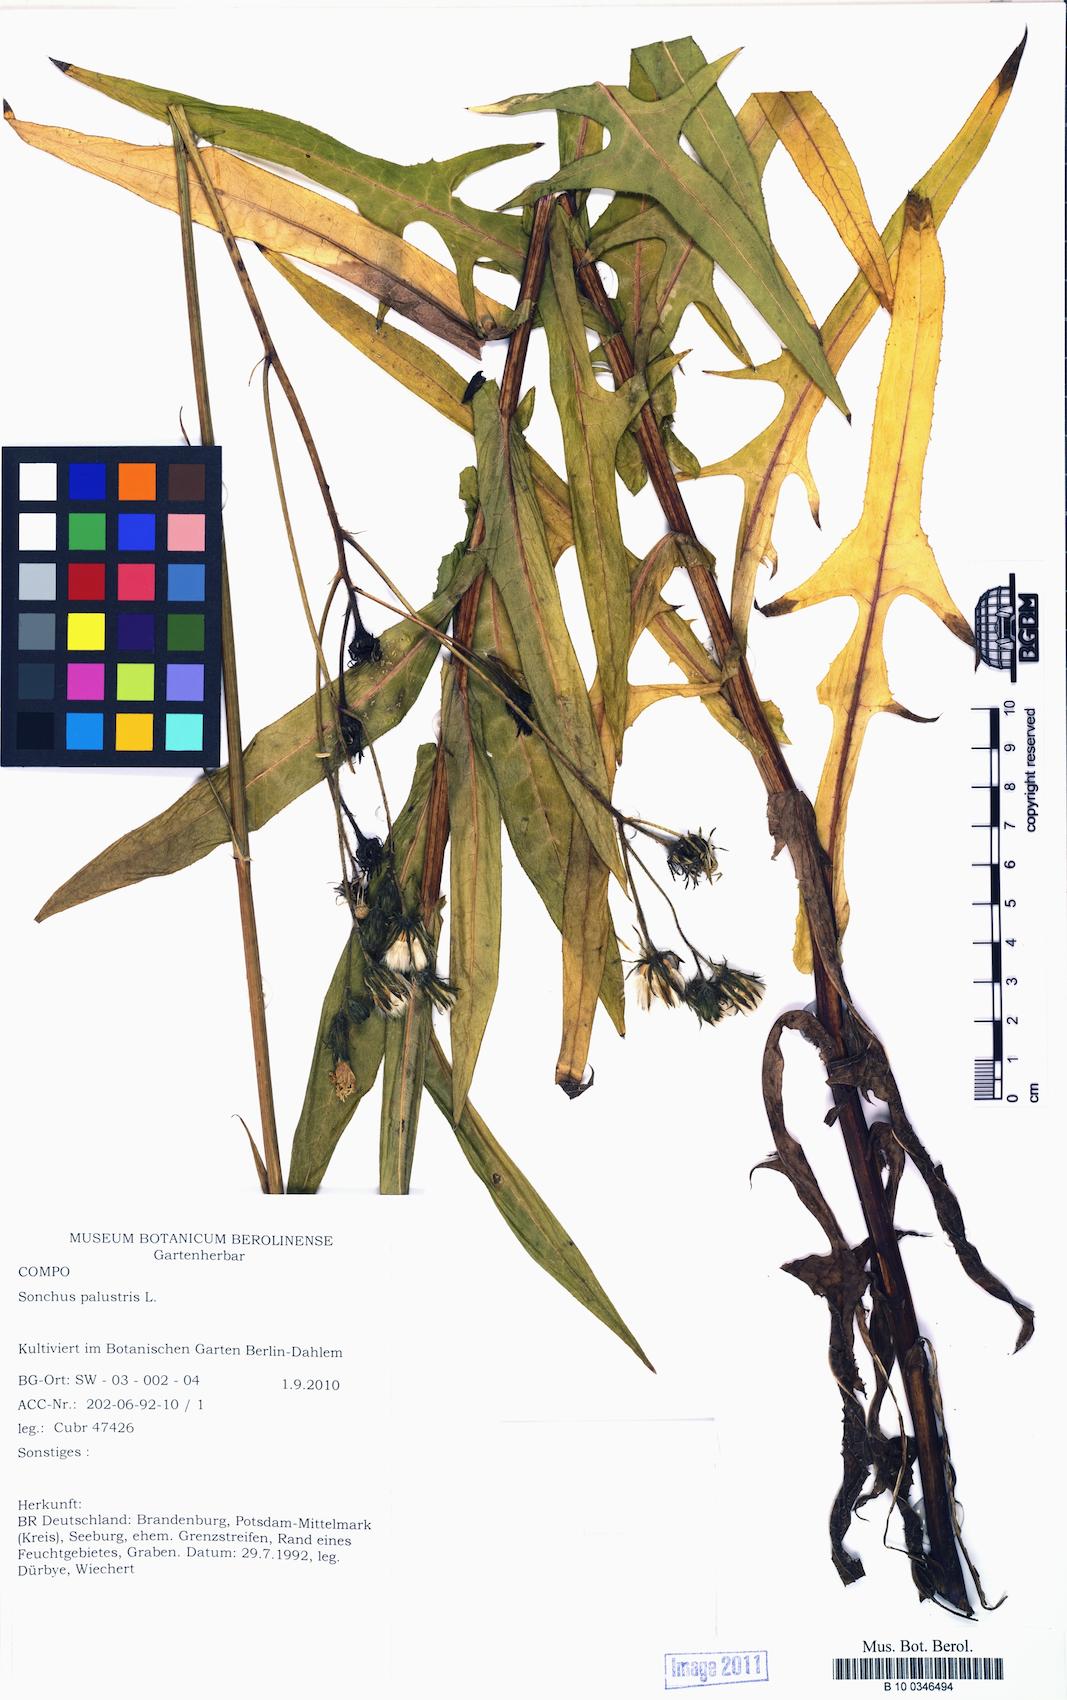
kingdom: Plantae
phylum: Tracheophyta
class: Magnoliopsida
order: Asterales
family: Asteraceae
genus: Sonchus
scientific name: Sonchus palustris
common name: Marsh sow-thistle
